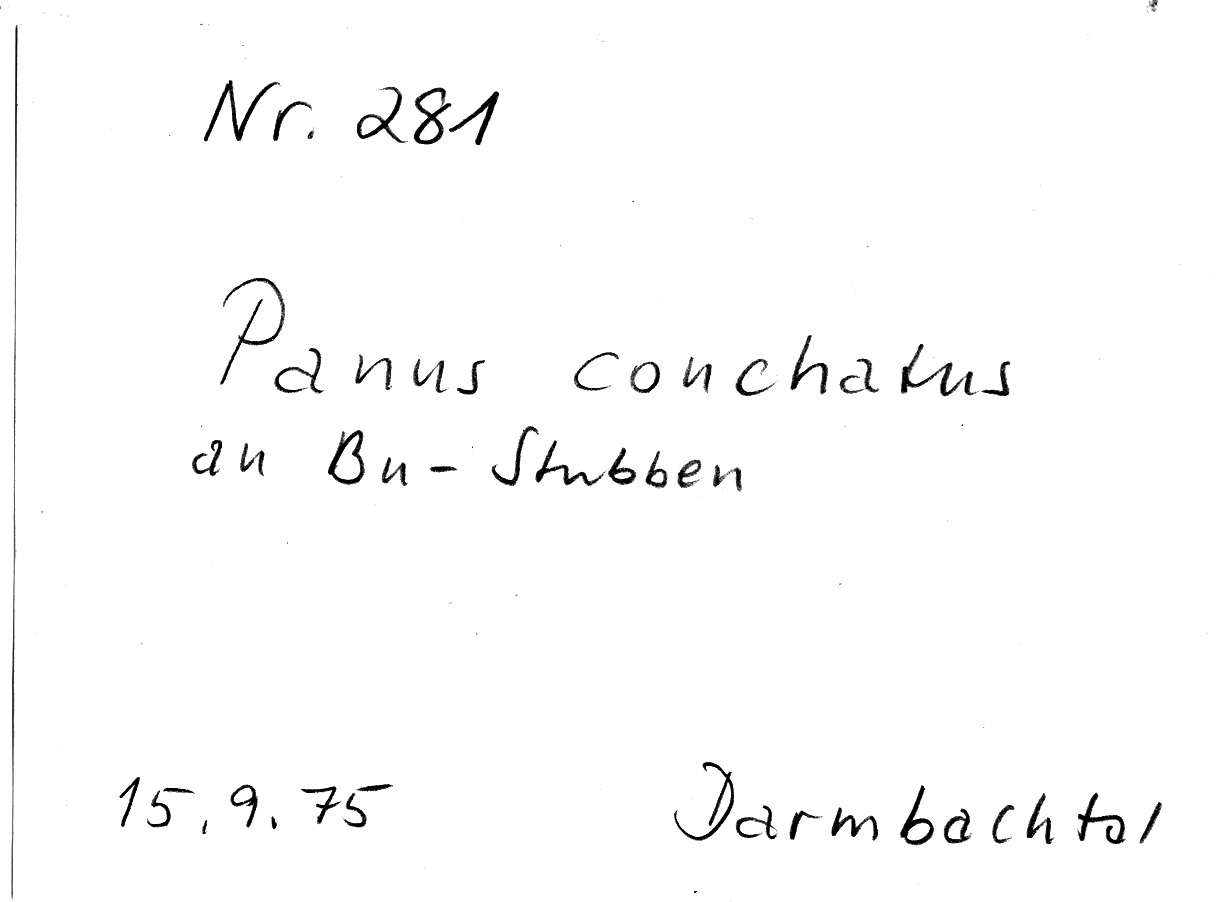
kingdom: Plantae
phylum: Tracheophyta
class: Magnoliopsida
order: Fagales
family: Fagaceae
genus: Fagus
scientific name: Fagus sylvatica
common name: Beech
